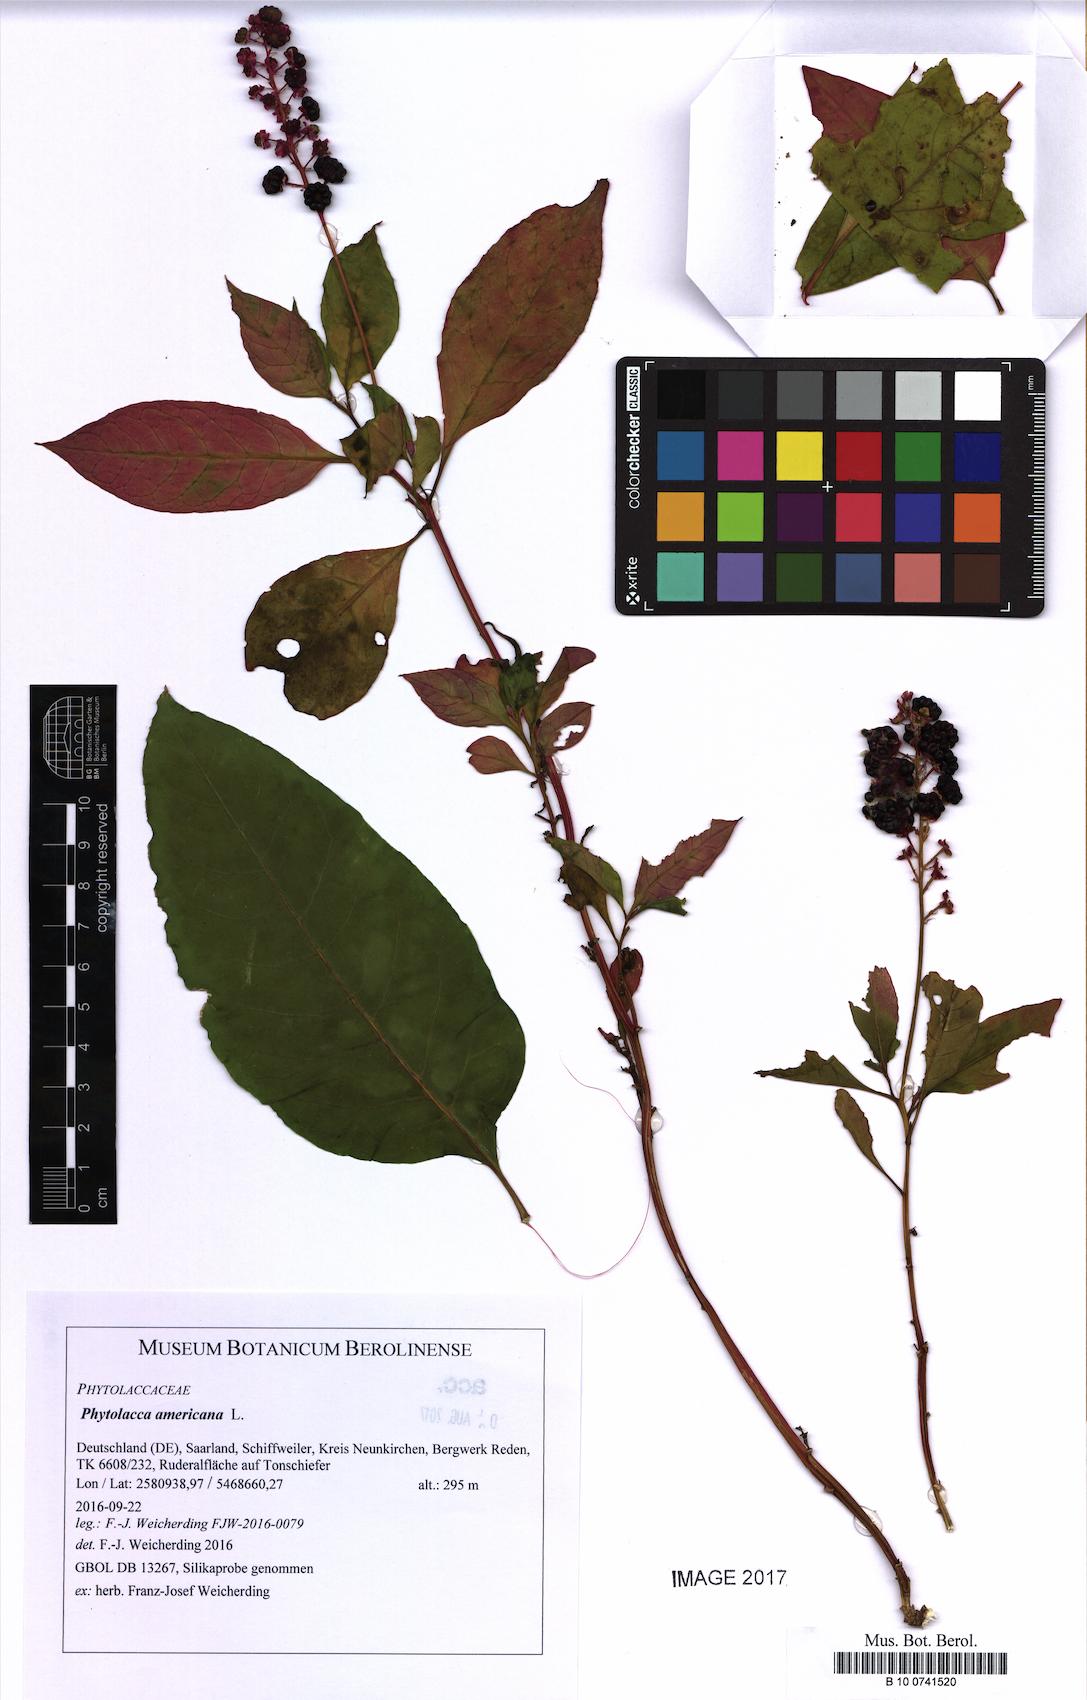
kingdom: Plantae
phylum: Tracheophyta
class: Magnoliopsida
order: Caryophyllales
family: Phytolaccaceae
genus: Phytolacca
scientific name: Phytolacca americana
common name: American pokeweed
